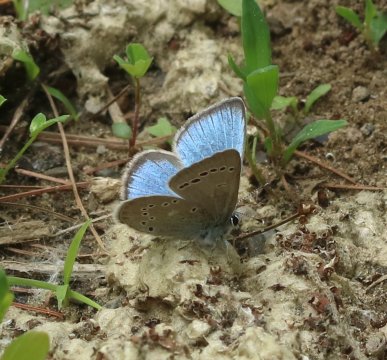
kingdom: Animalia
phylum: Arthropoda
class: Insecta
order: Lepidoptera
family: Lycaenidae
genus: Glaucopsyche
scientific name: Glaucopsyche lygdamus
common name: Silvery Blue
